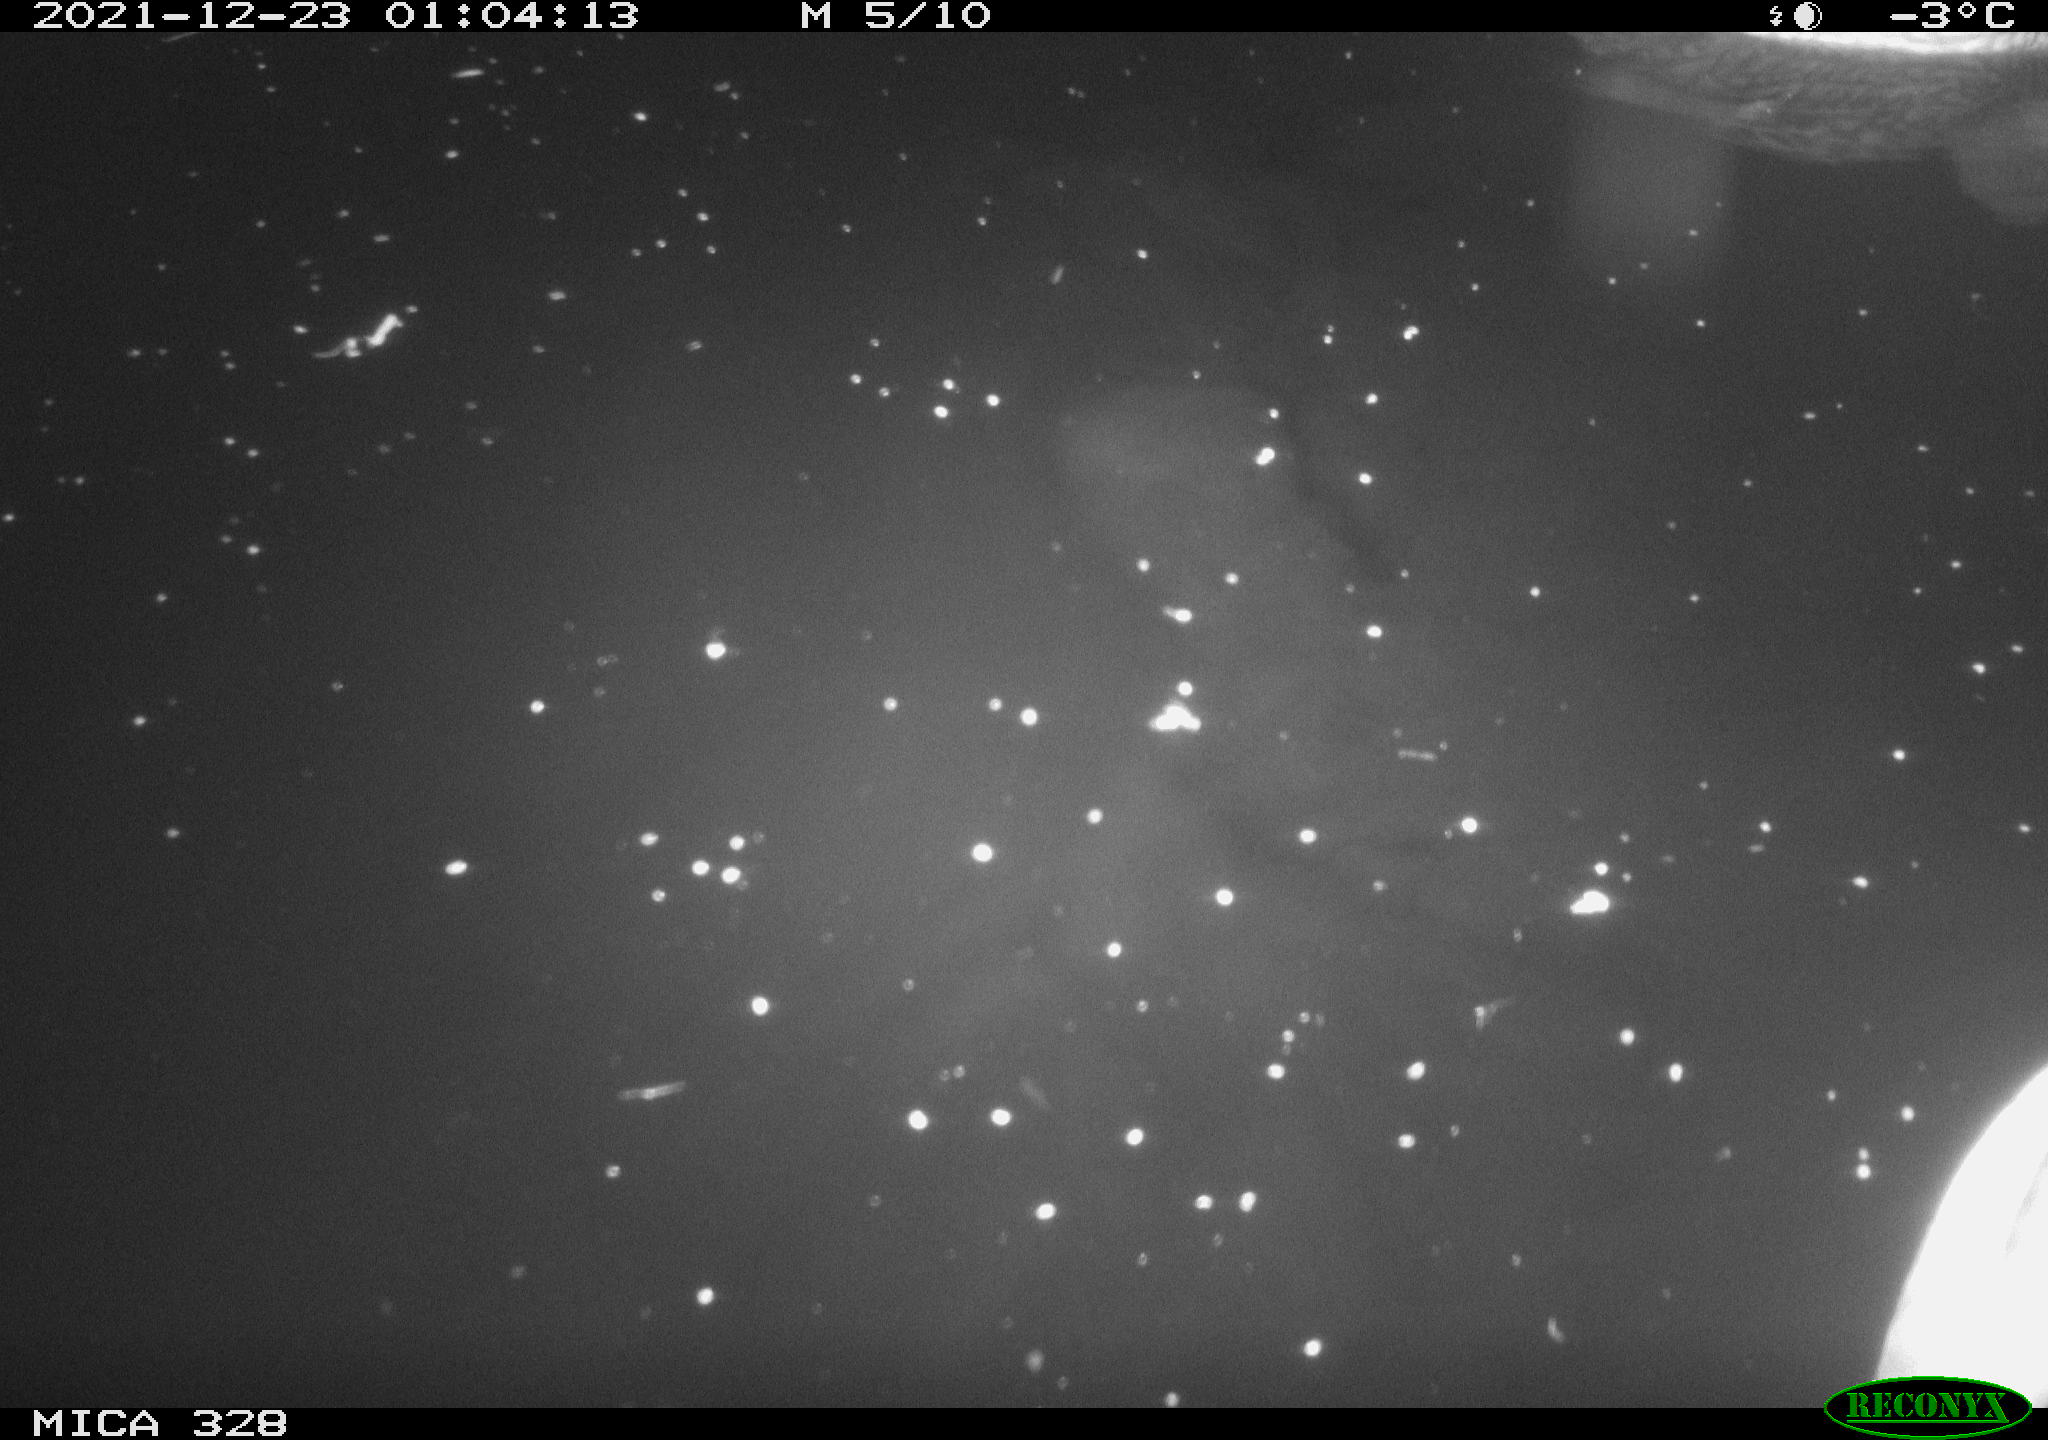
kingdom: Animalia
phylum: Chordata
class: Aves
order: Anseriformes
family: Anatidae
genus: Anas
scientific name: Anas platyrhynchos
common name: Mallard
